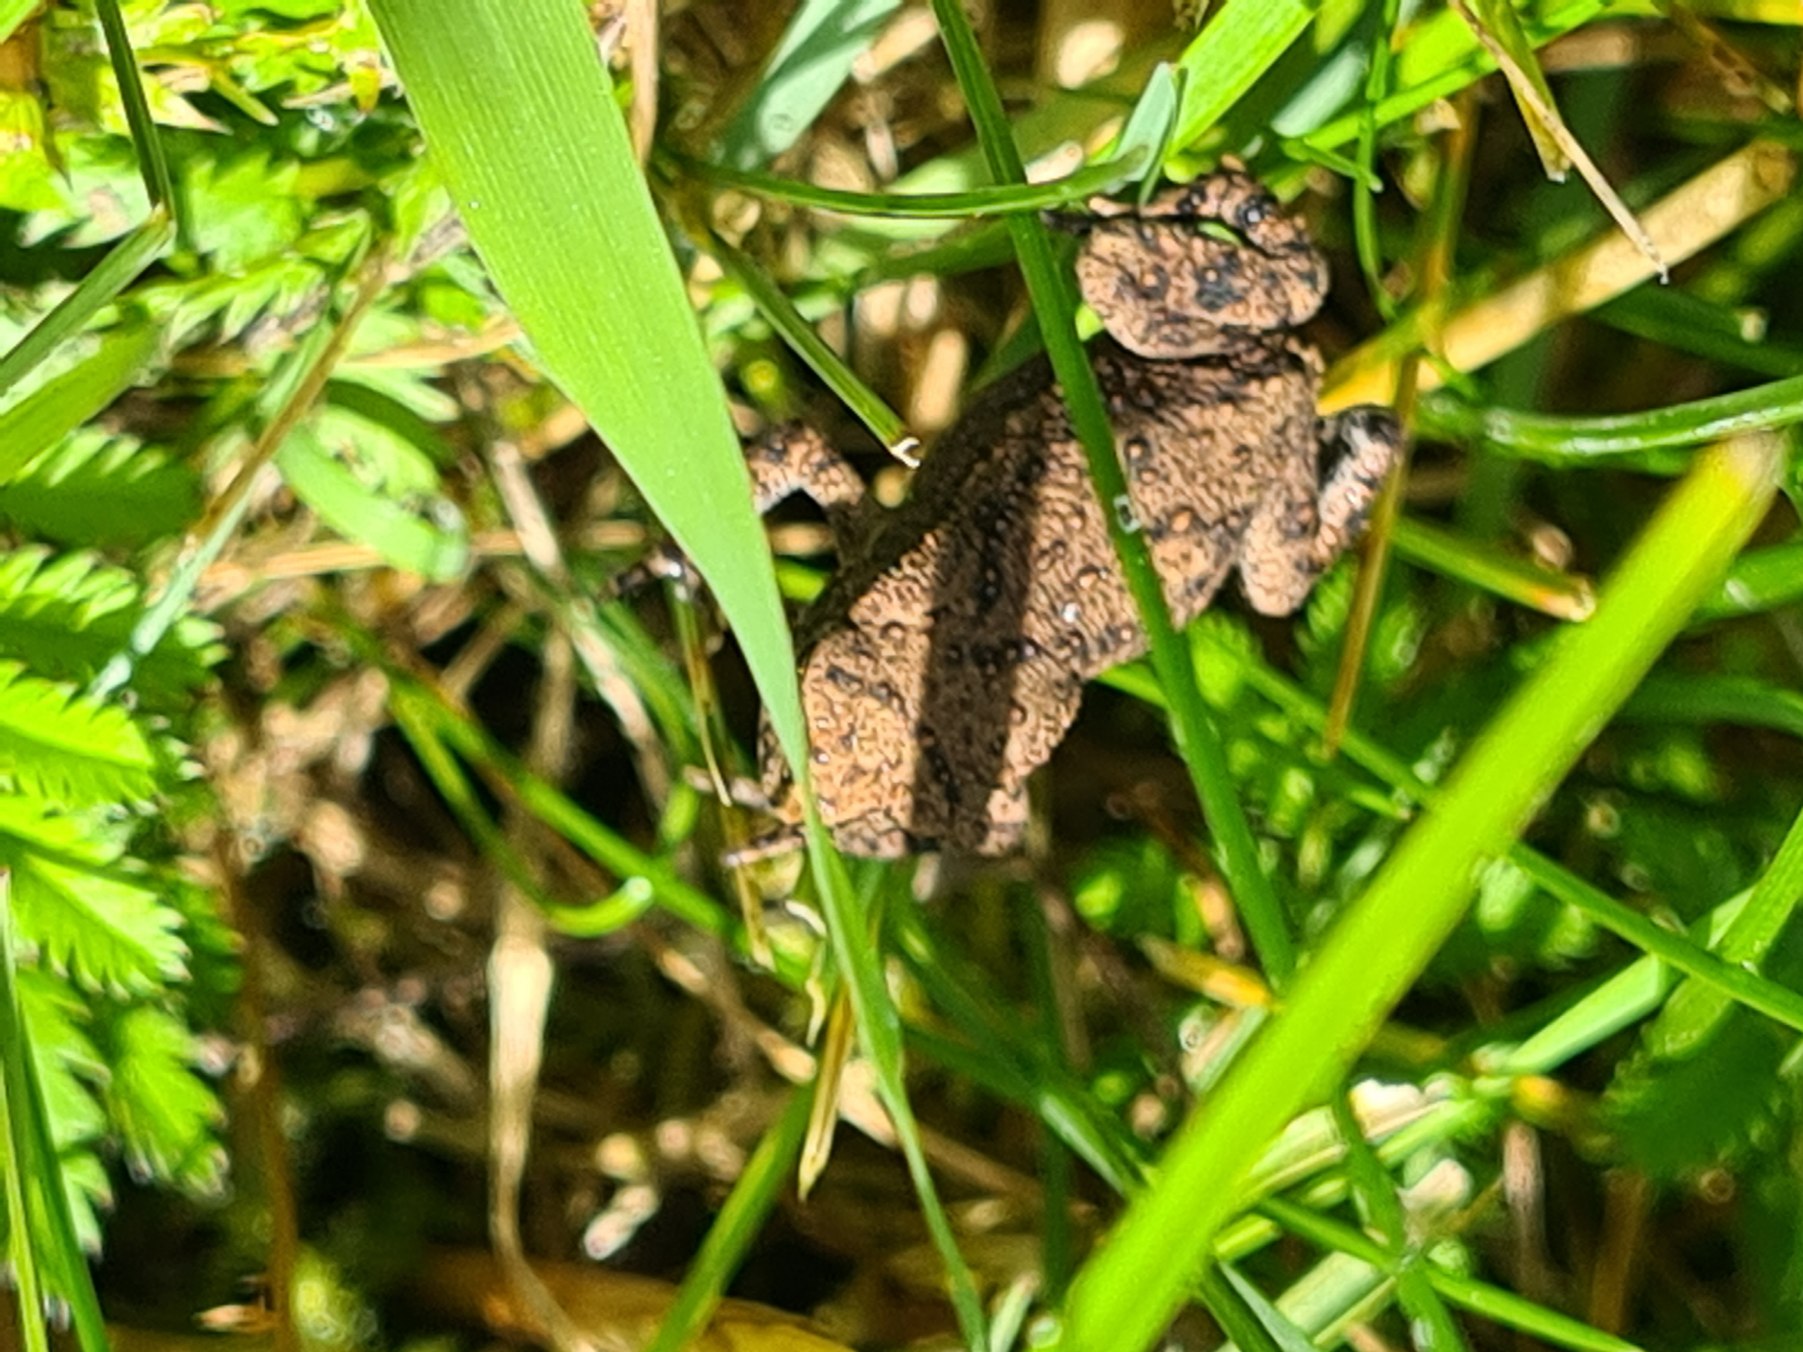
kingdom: Animalia
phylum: Chordata
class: Amphibia
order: Anura
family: Bufonidae
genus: Bufo
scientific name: Bufo bufo
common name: Skrubtudse
